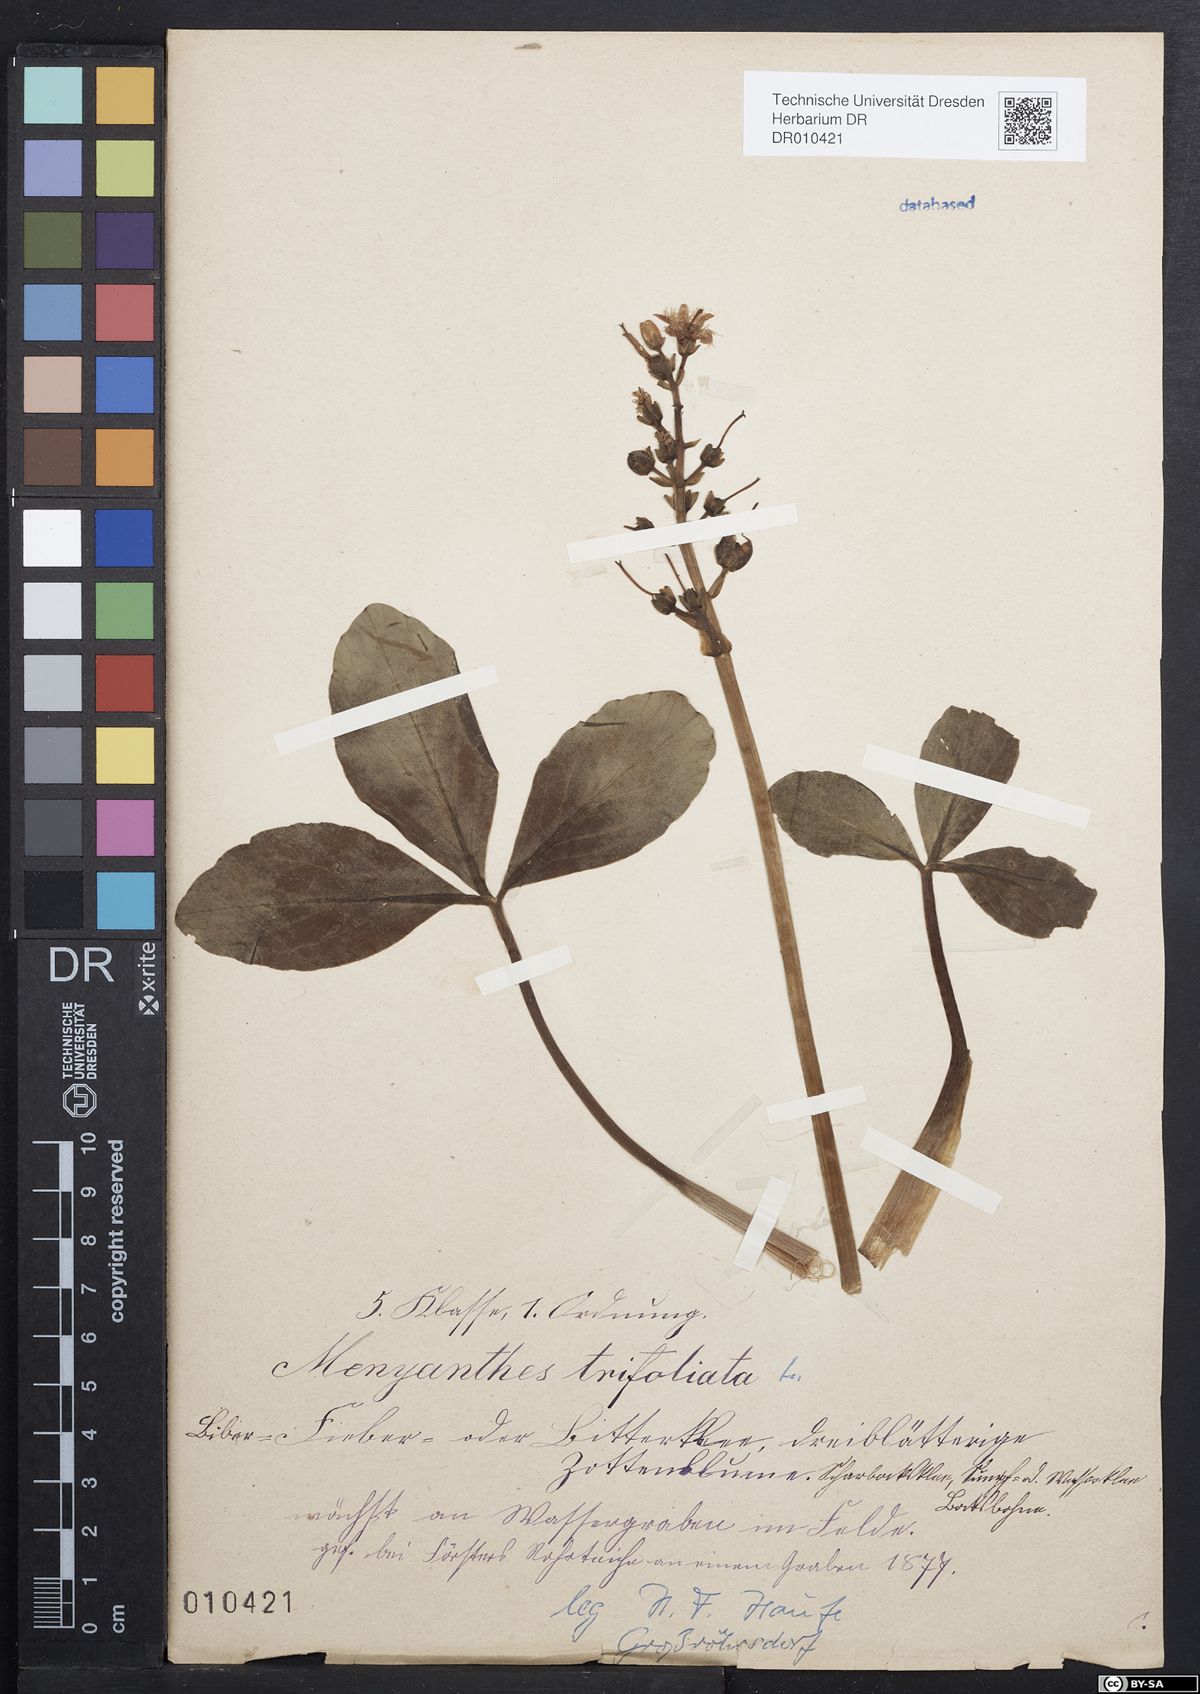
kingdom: Plantae
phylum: Tracheophyta
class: Magnoliopsida
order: Asterales
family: Menyanthaceae
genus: Menyanthes
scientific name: Menyanthes trifoliata
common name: Bogbean
